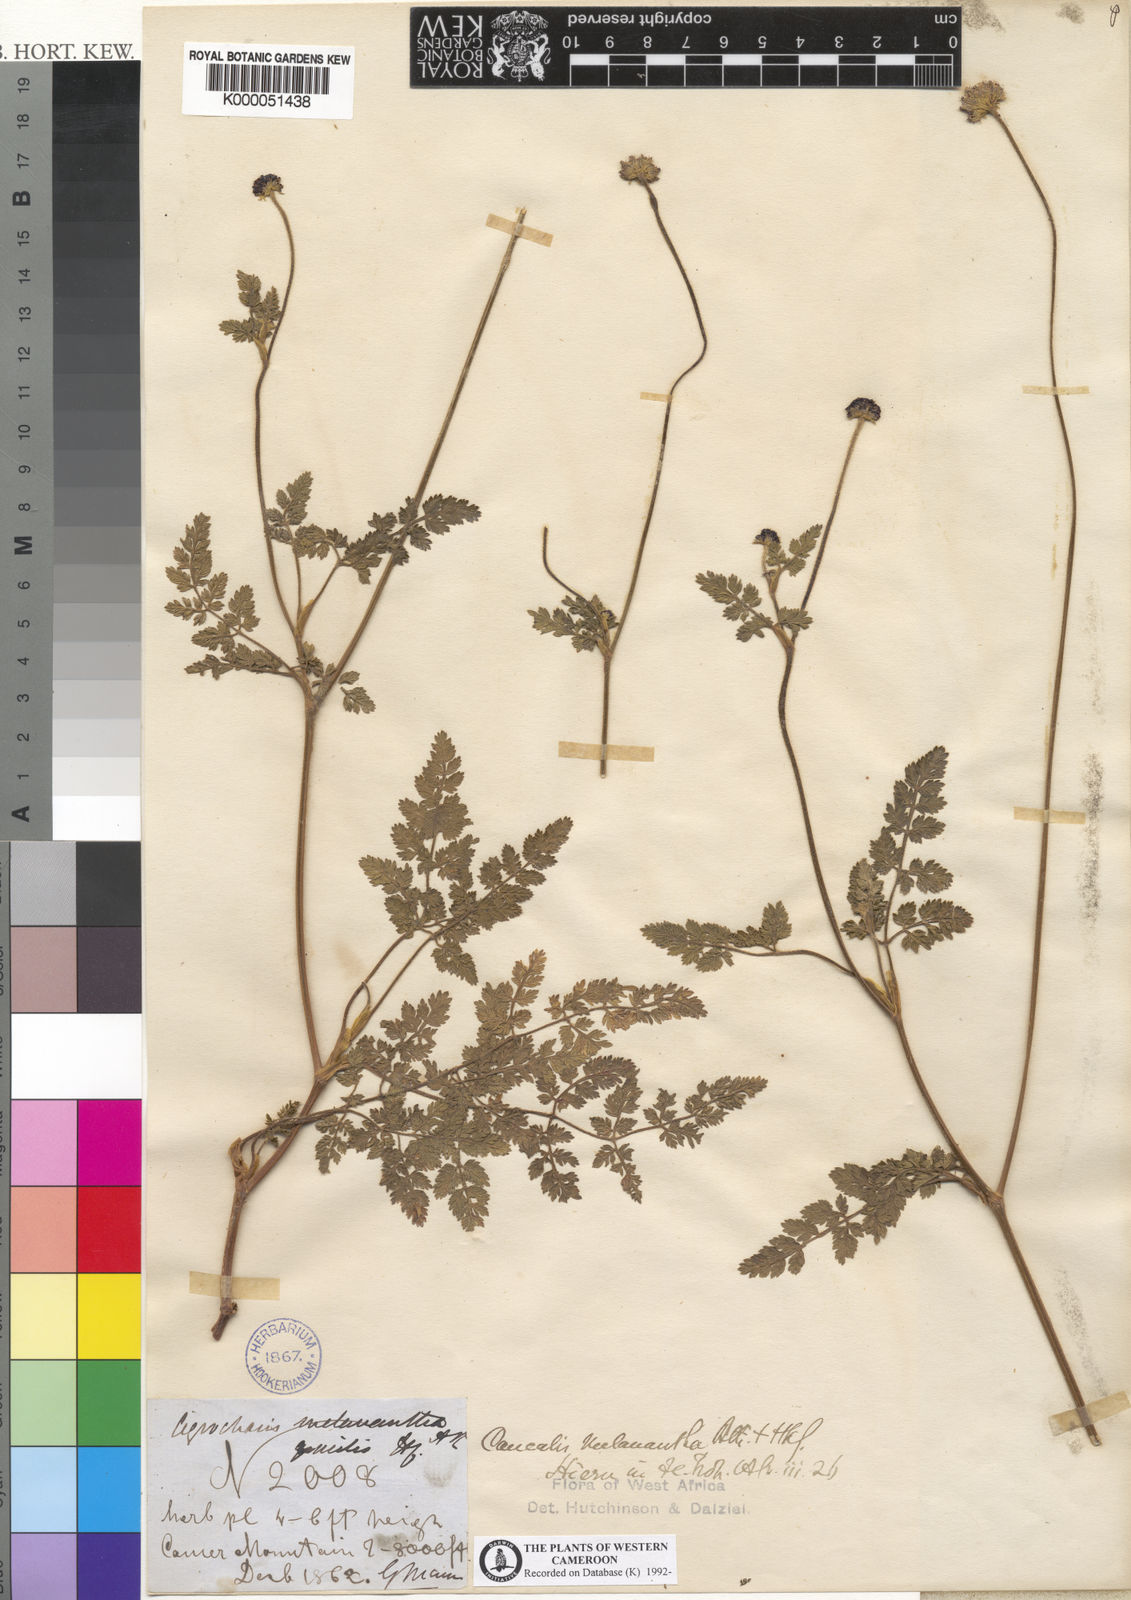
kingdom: Plantae
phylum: Tracheophyta
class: Magnoliopsida
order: Apiales
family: Apiaceae
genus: Daucus
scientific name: Daucus incognitus
